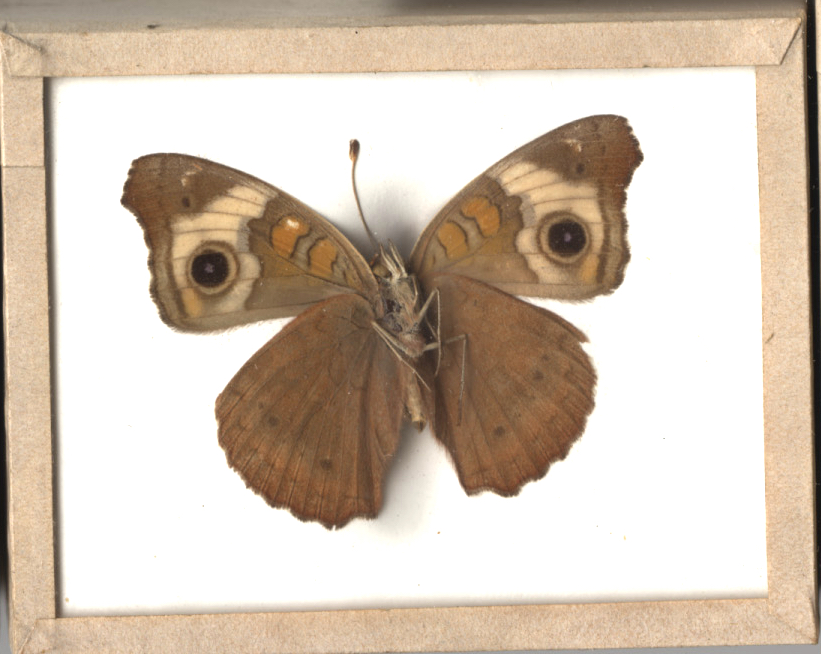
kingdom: Animalia
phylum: Arthropoda
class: Insecta
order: Lepidoptera
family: Nymphalidae
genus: Junonia
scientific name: Junonia coenia
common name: Common Buckeye
